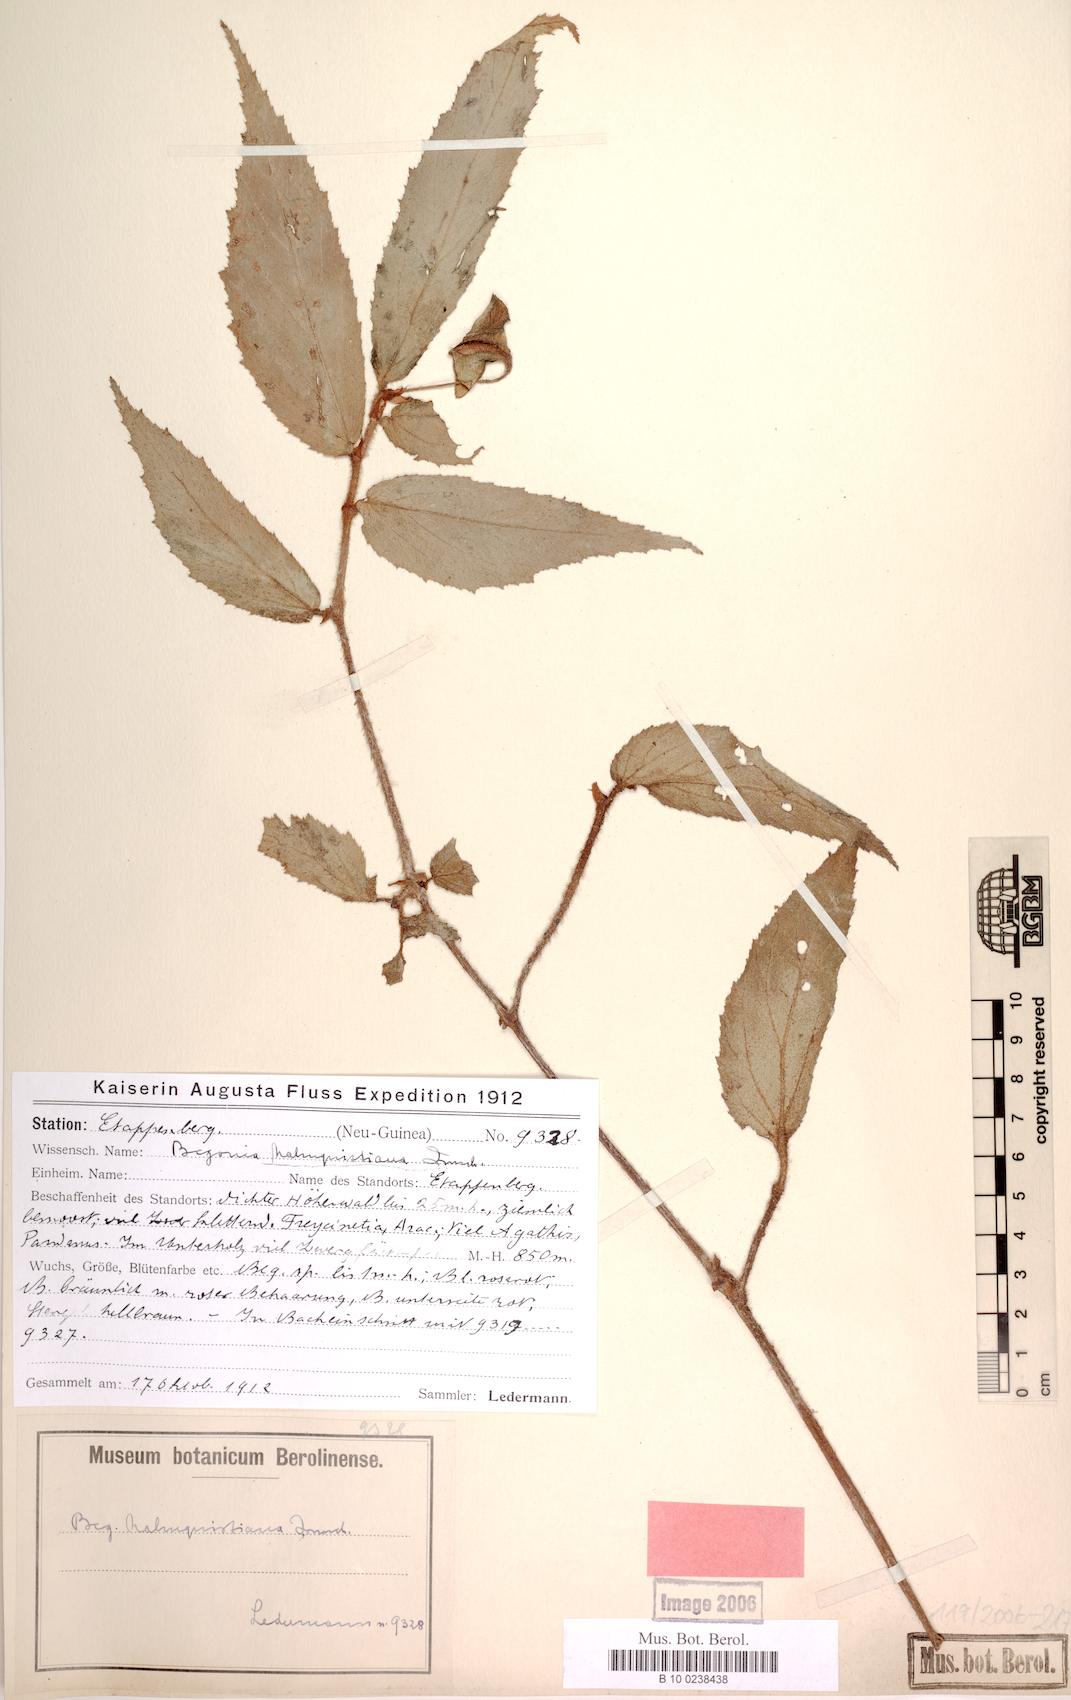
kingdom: Plantae
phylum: Tracheophyta
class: Magnoliopsida
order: Cucurbitales
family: Begoniaceae
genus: Begonia
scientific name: Begonia malmquistiana
